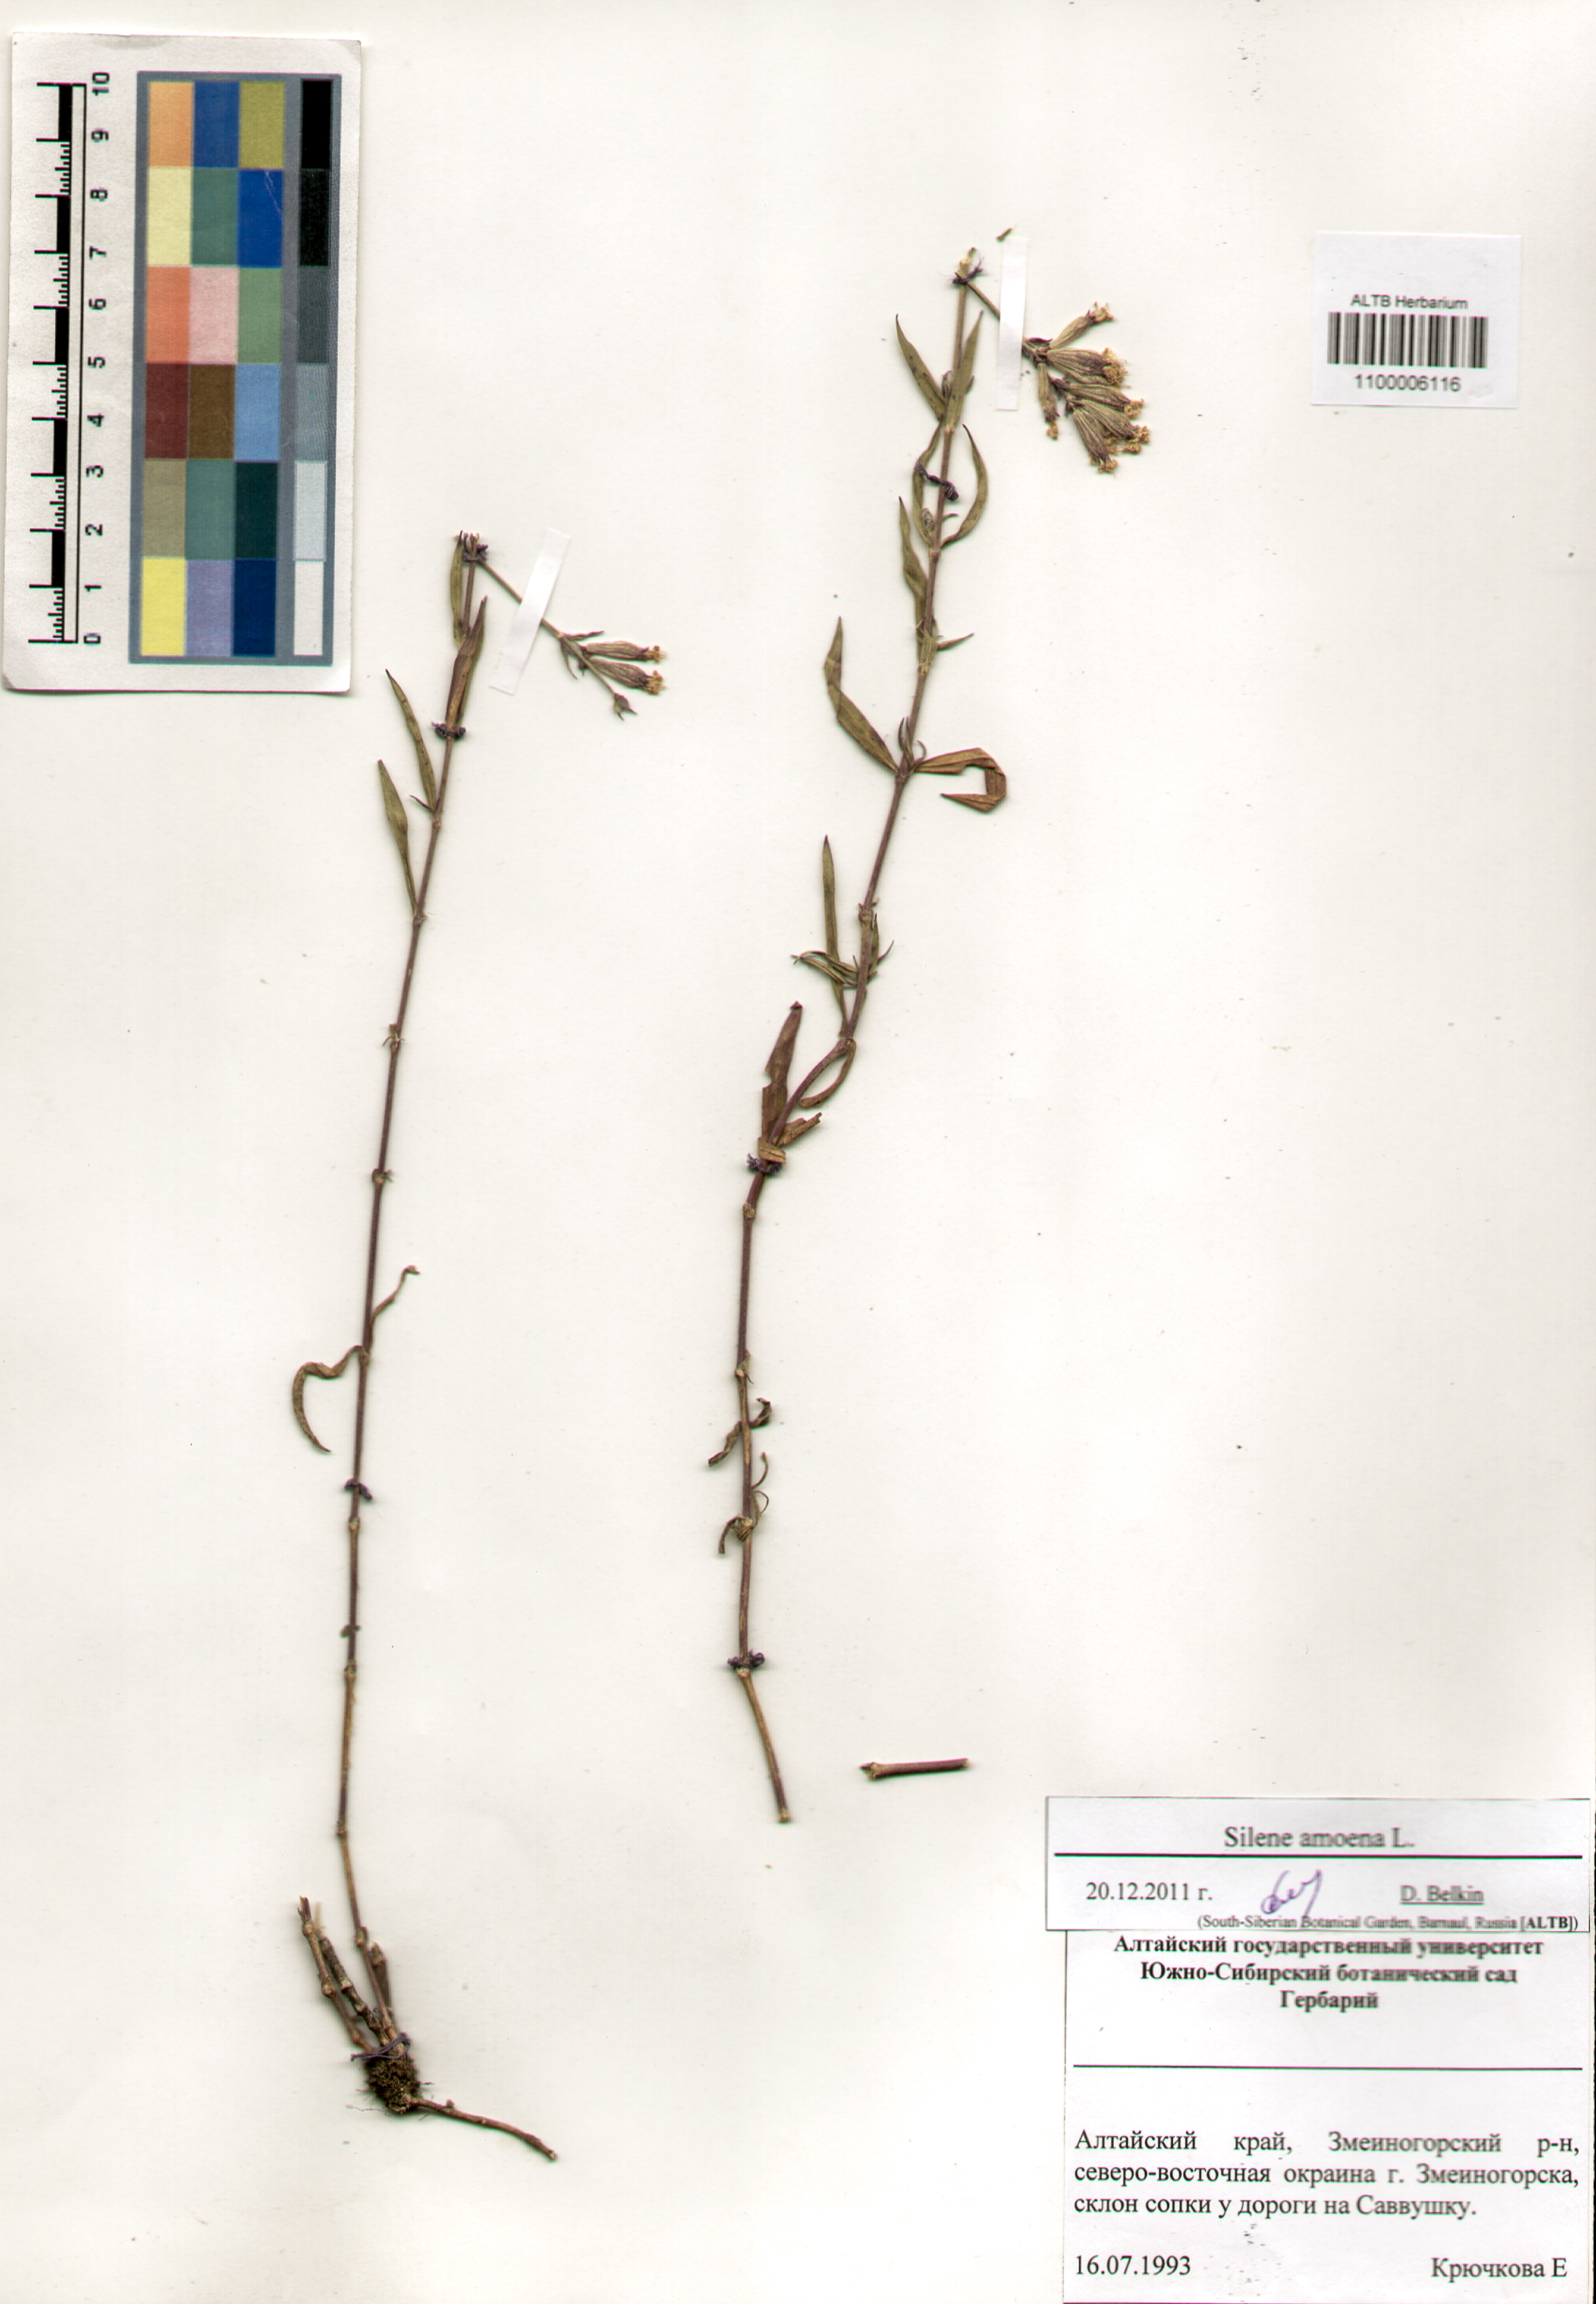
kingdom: Plantae
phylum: Tracheophyta
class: Magnoliopsida
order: Caryophyllales
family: Caryophyllaceae
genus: Silene
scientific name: Silene amoena
